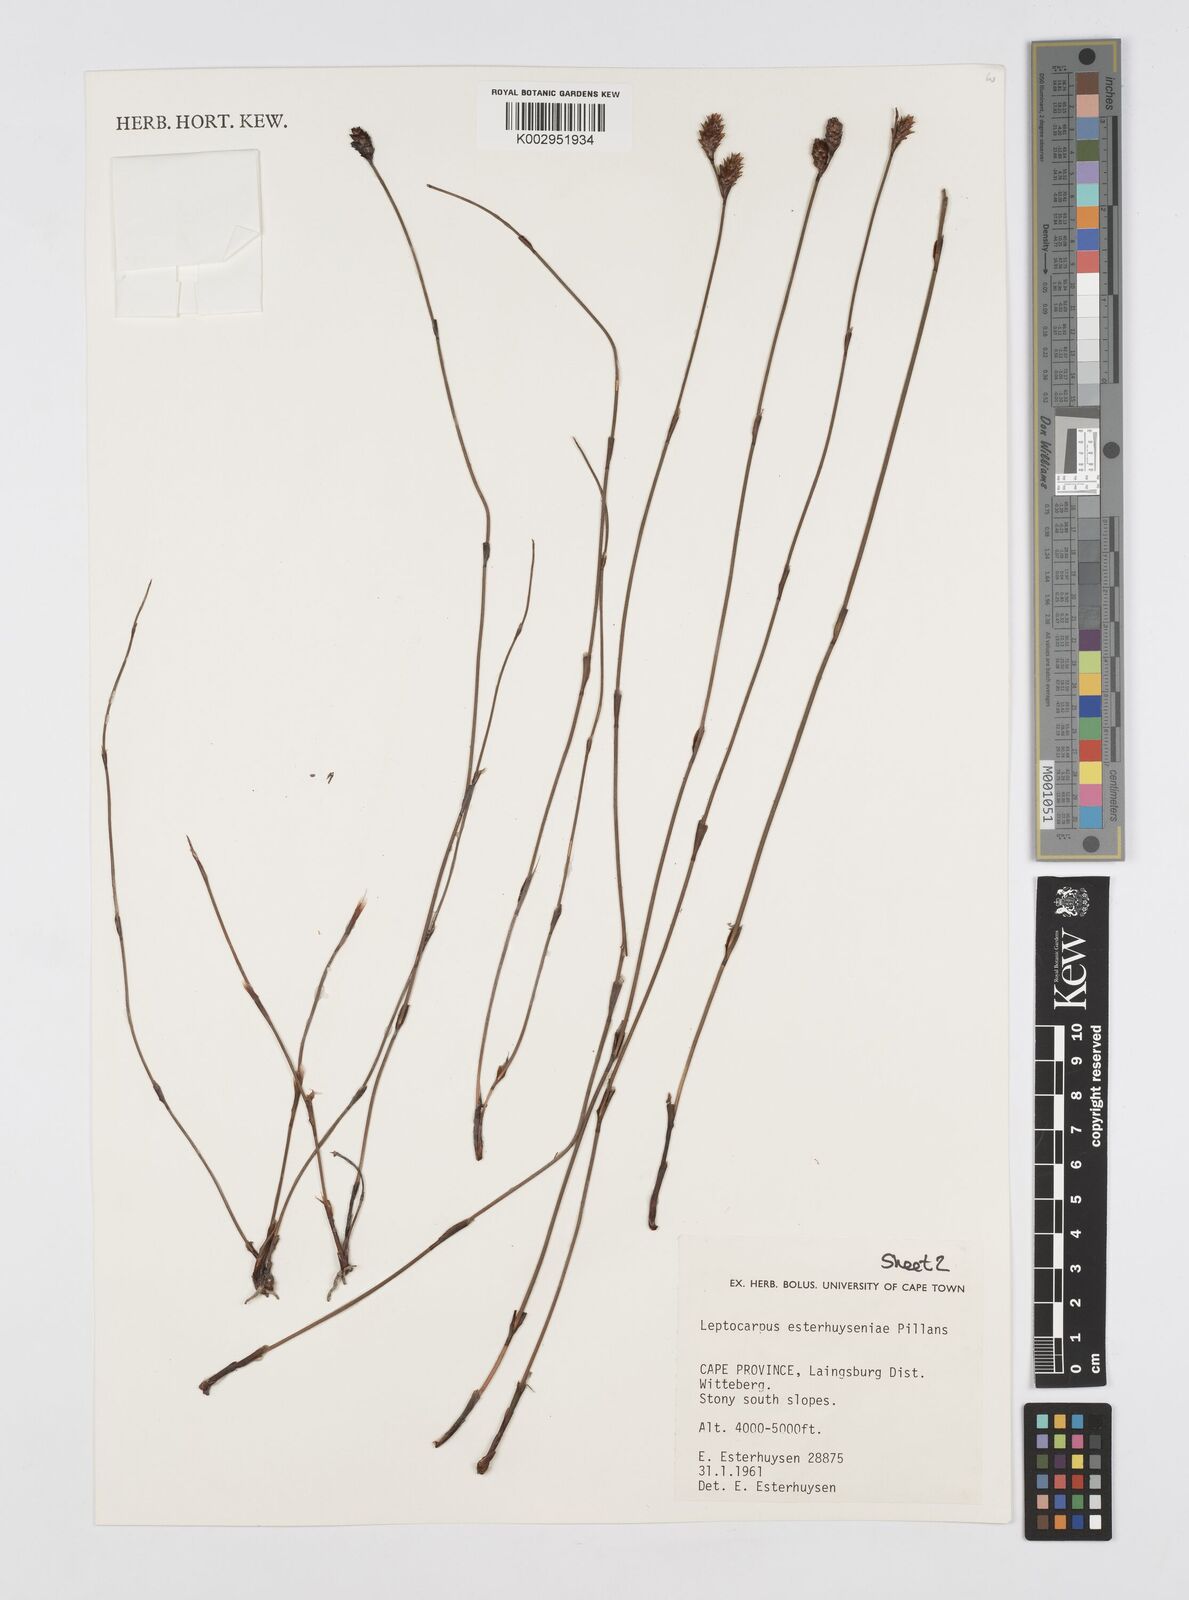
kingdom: Plantae
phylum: Tracheophyta
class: Liliopsida
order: Poales
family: Restionaceae
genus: Restio
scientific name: Restio esterhuyseniae
